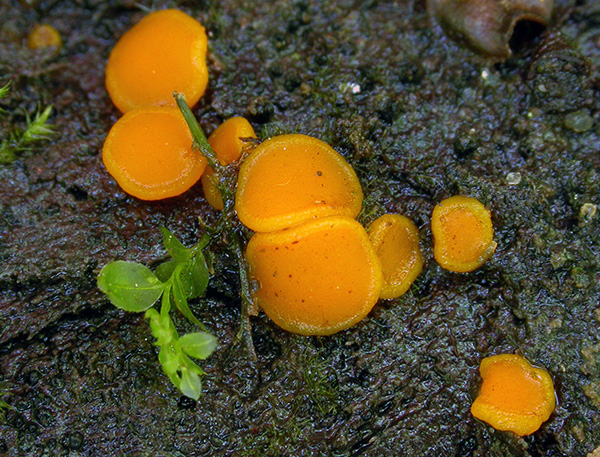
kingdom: Fungi
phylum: Ascomycota
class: Pezizomycetes
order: Pezizales
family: Pyronemataceae
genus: Miladina
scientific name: Miladina lecithina
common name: vandbæger
